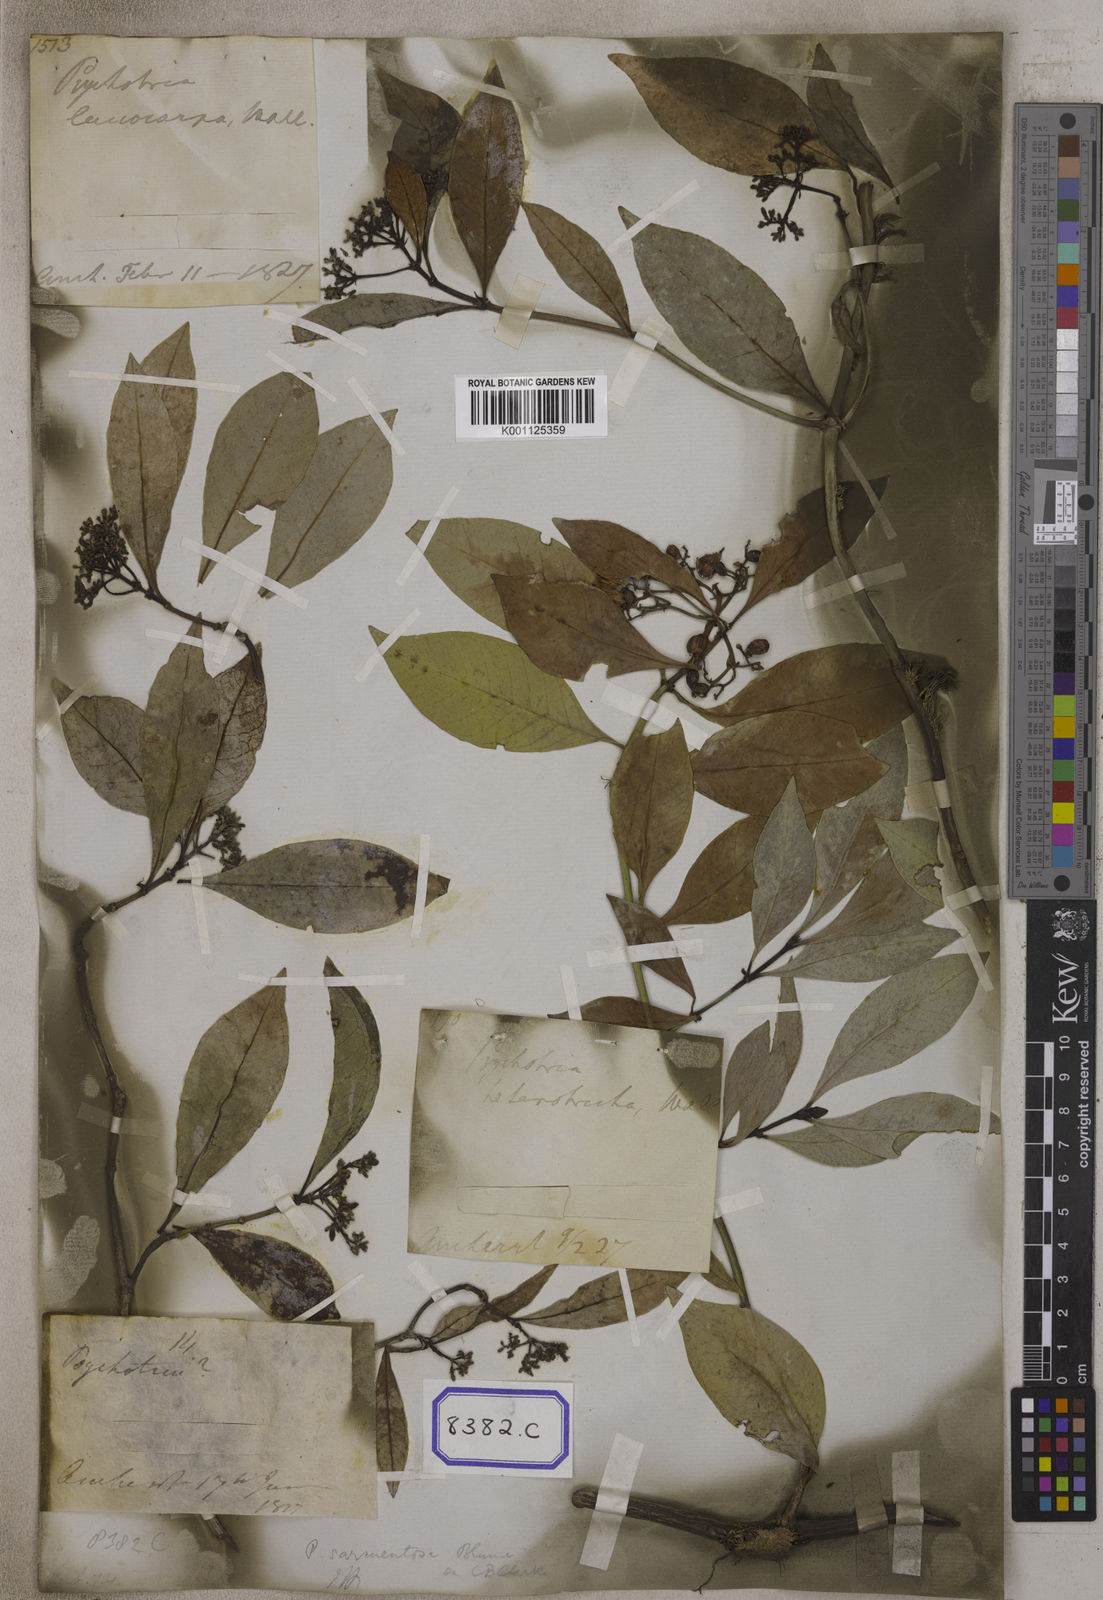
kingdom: Plantae
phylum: Tracheophyta
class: Magnoliopsida
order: Gentianales
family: Rubiaceae
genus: Psychotria
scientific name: Psychotria sarmentosoides
